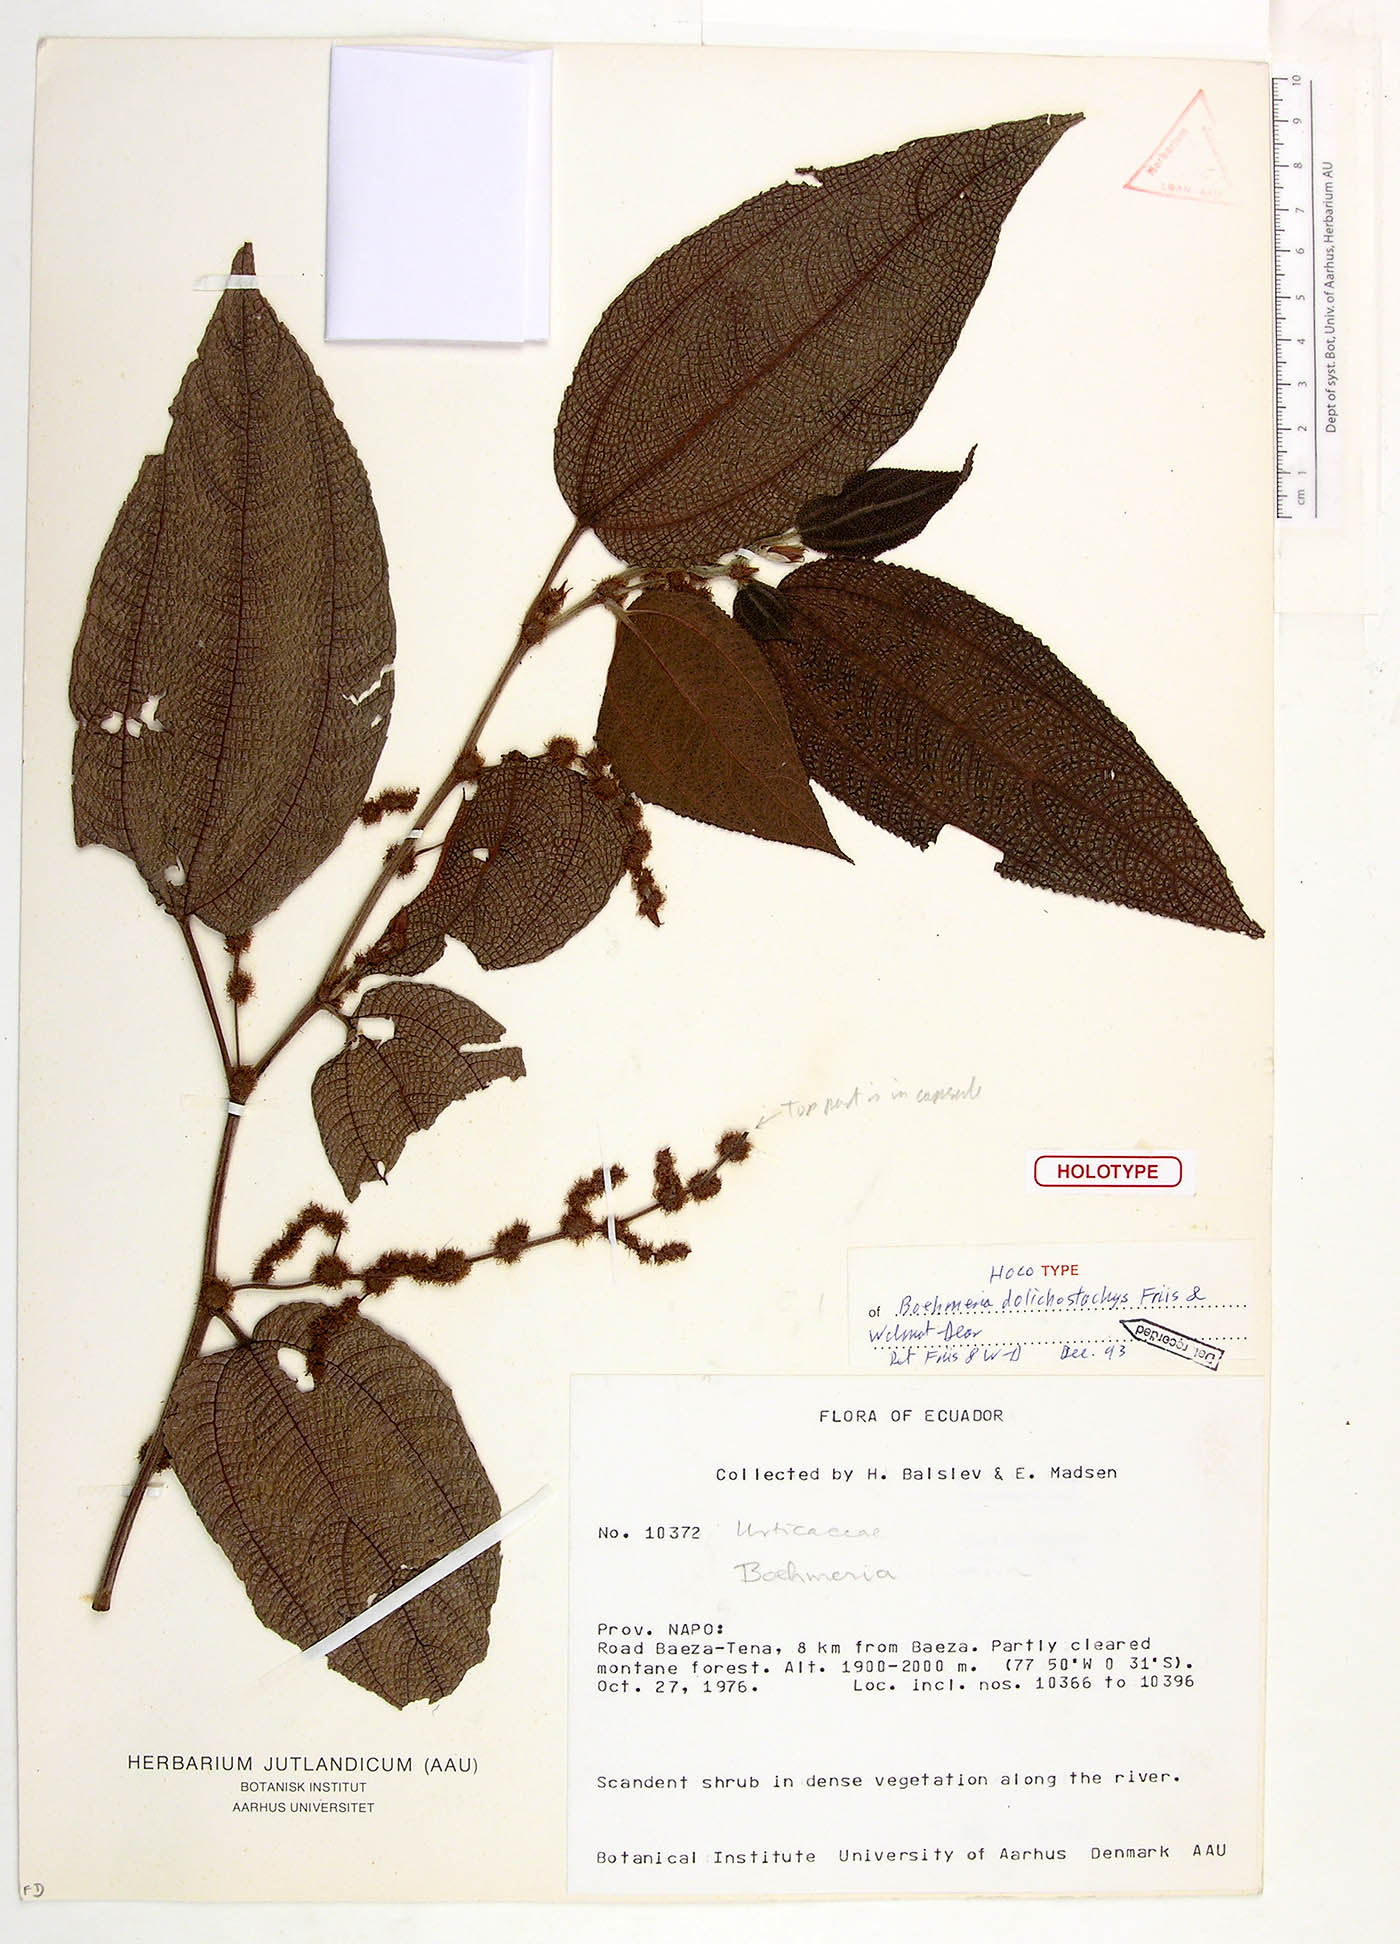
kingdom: Plantae
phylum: Tracheophyta
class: Magnoliopsida
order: Rosales
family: Urticaceae
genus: Boehmeria
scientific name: Boehmeria balslevii
